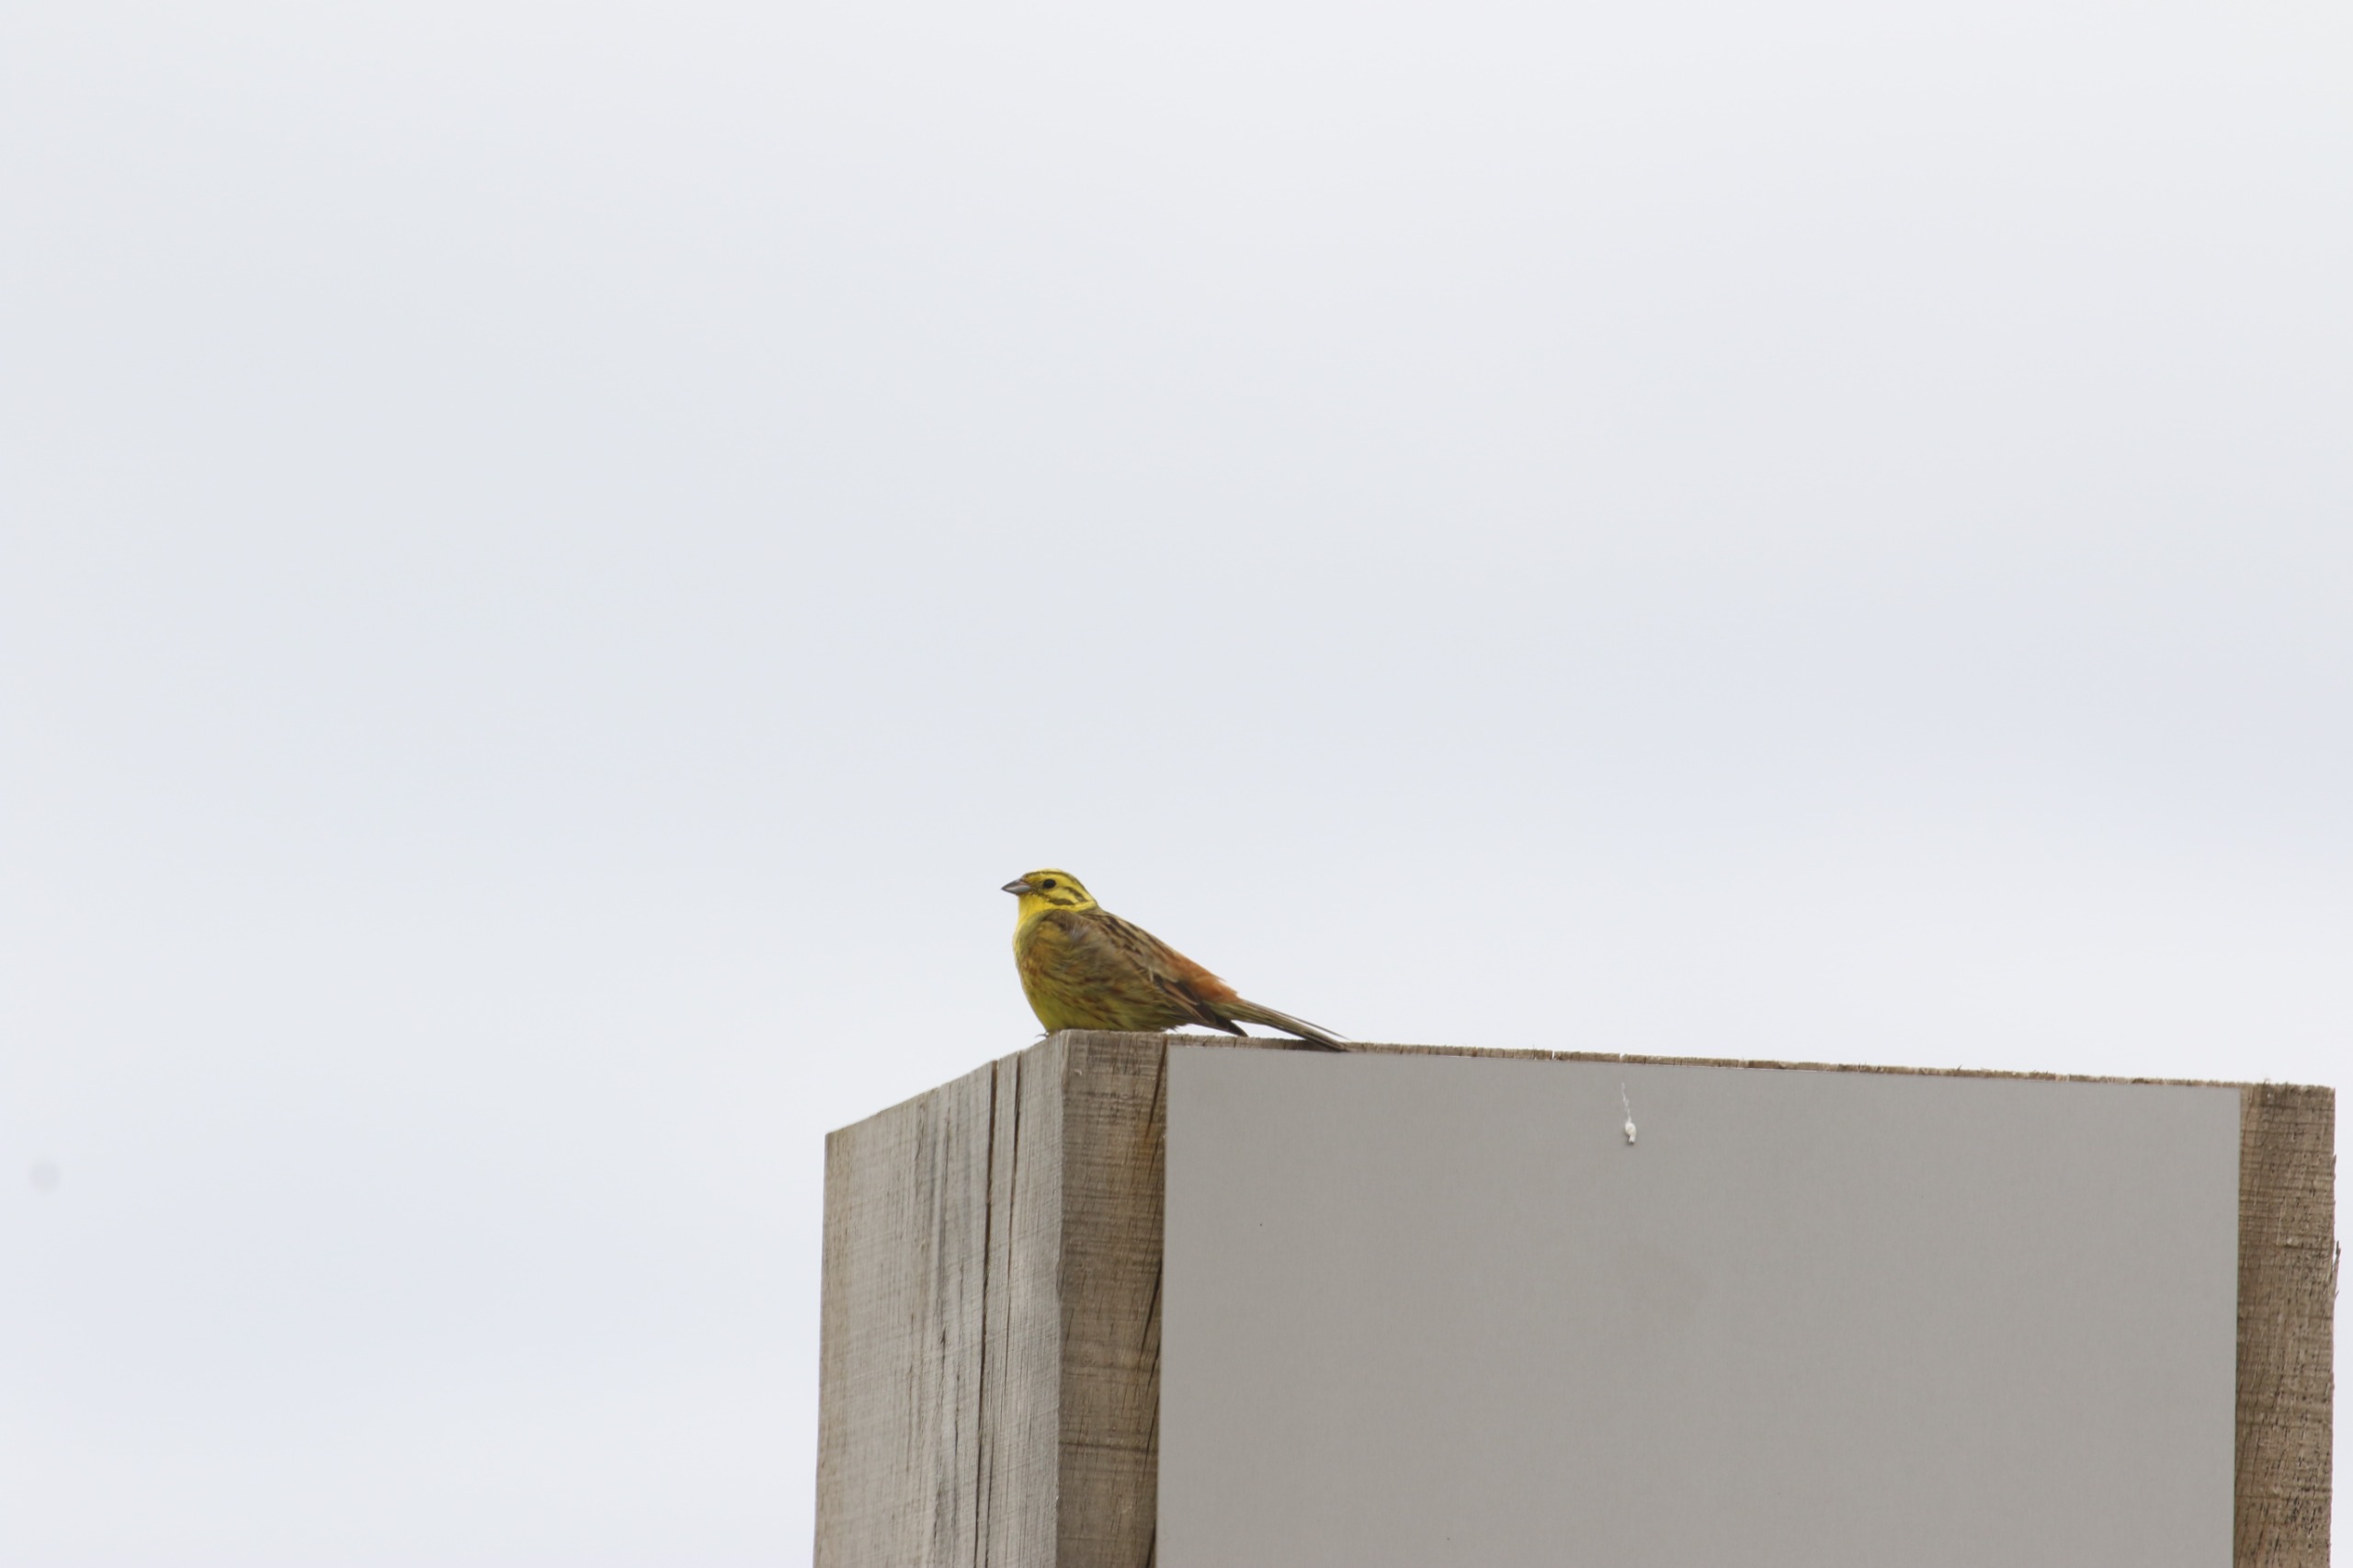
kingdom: Animalia
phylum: Chordata
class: Aves
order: Passeriformes
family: Emberizidae
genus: Emberiza
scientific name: Emberiza citrinella
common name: Gulspurv
